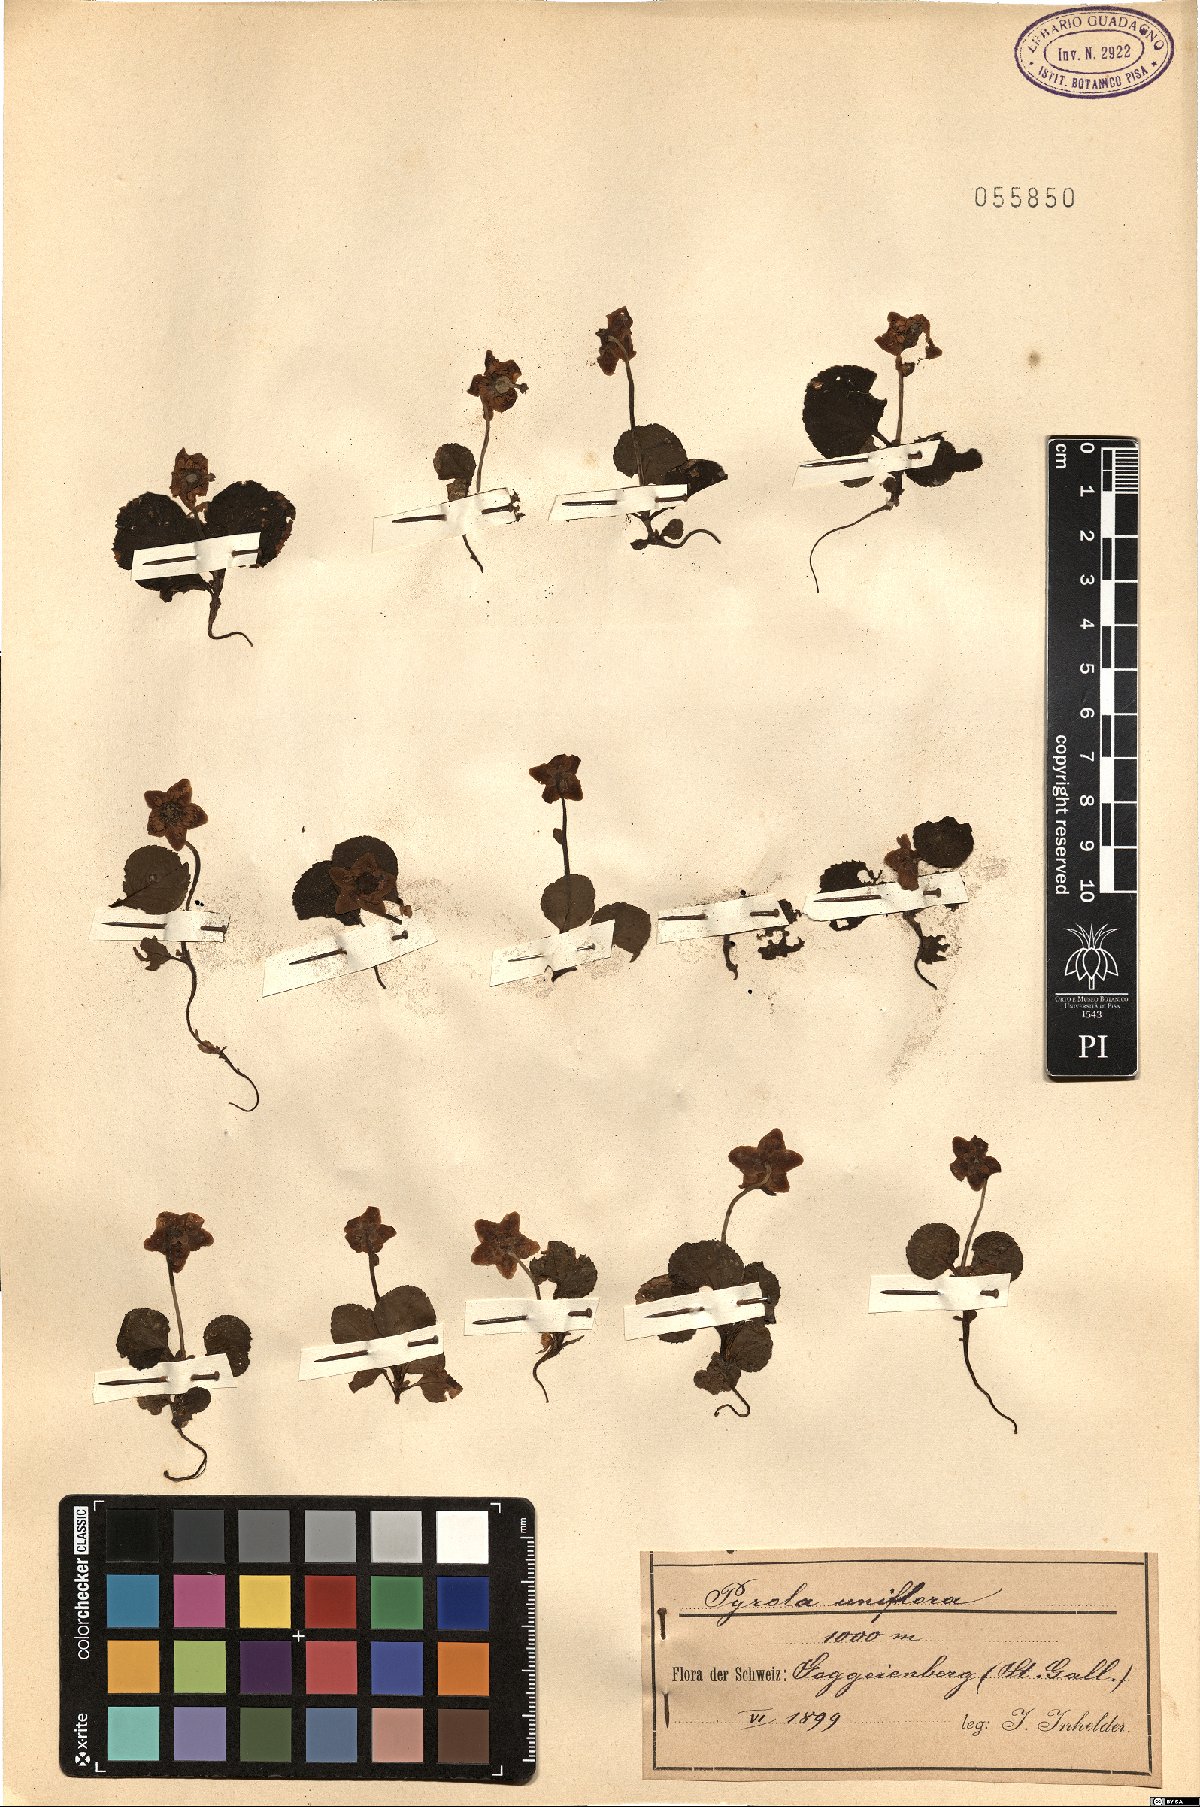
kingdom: Plantae
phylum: Tracheophyta
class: Magnoliopsida
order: Ericales
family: Ericaceae
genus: Moneses
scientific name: Moneses uniflora
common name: One-flowered wintergreen
